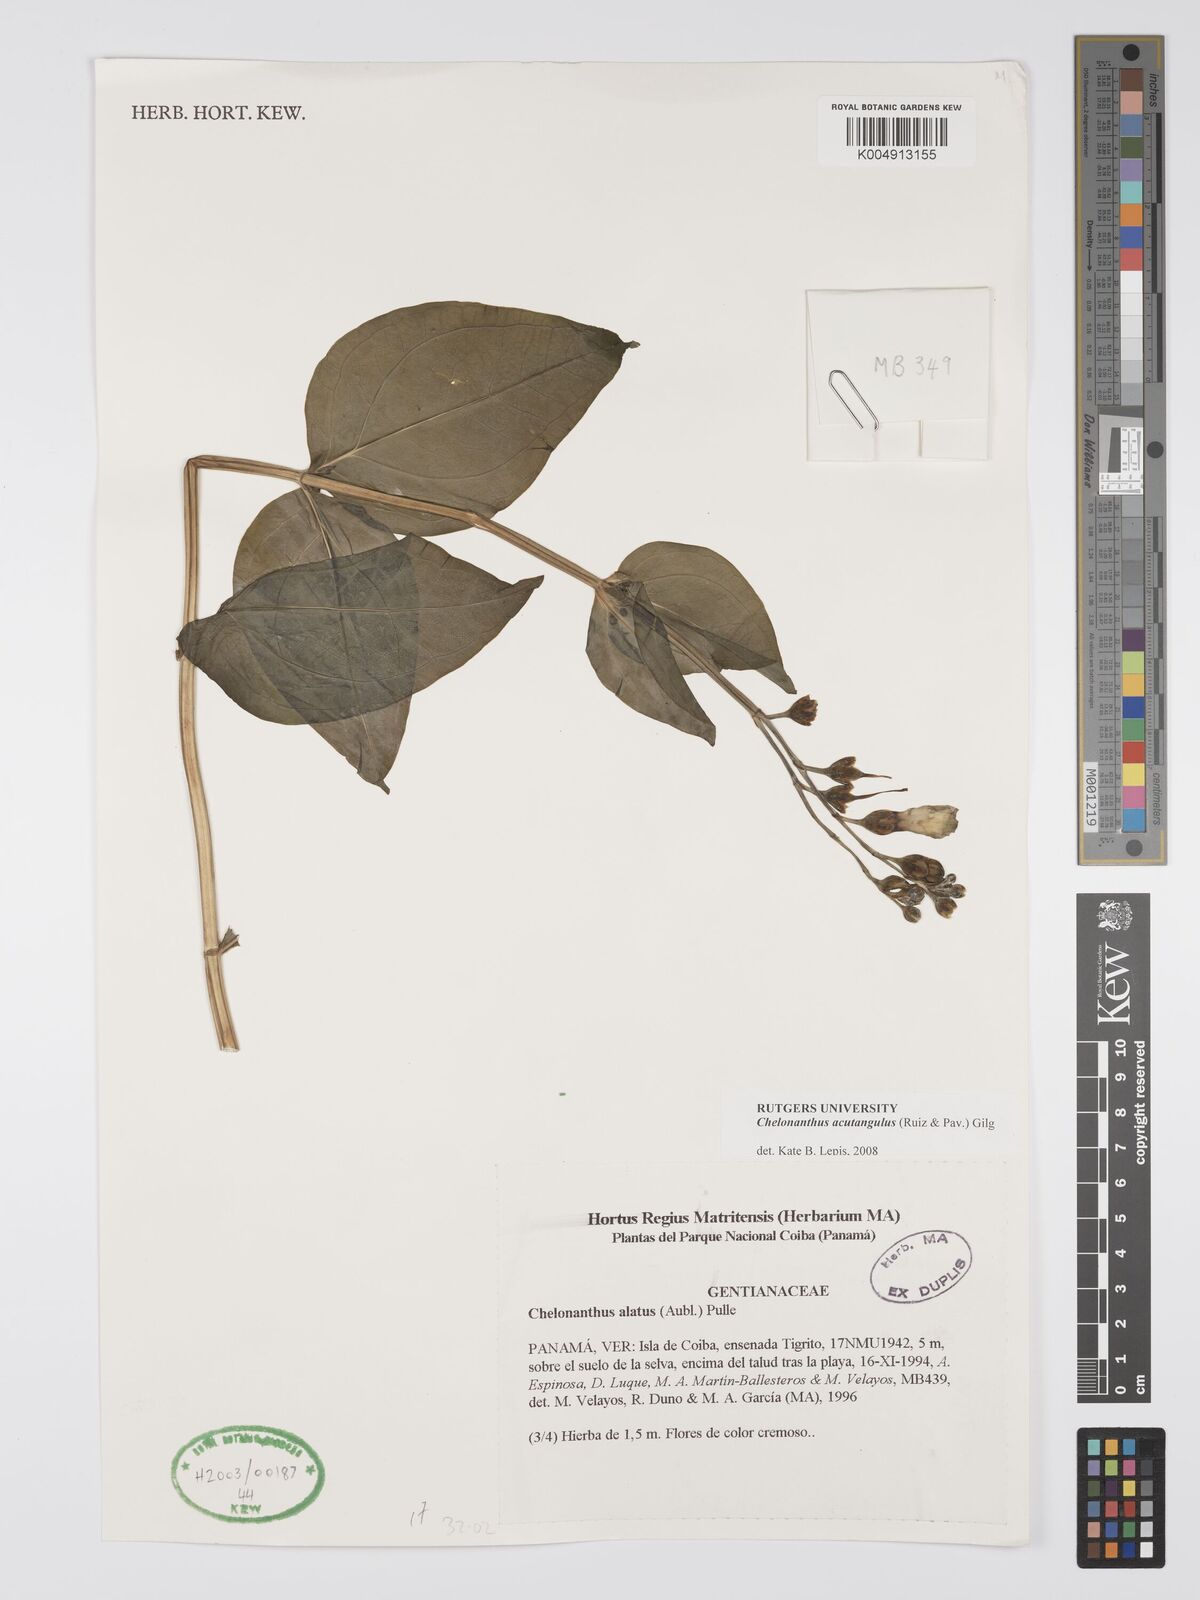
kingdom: Plantae
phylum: Tracheophyta
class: Magnoliopsida
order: Gentianales
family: Gentianaceae
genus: Chelonanthus
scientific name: Chelonanthus alatus
